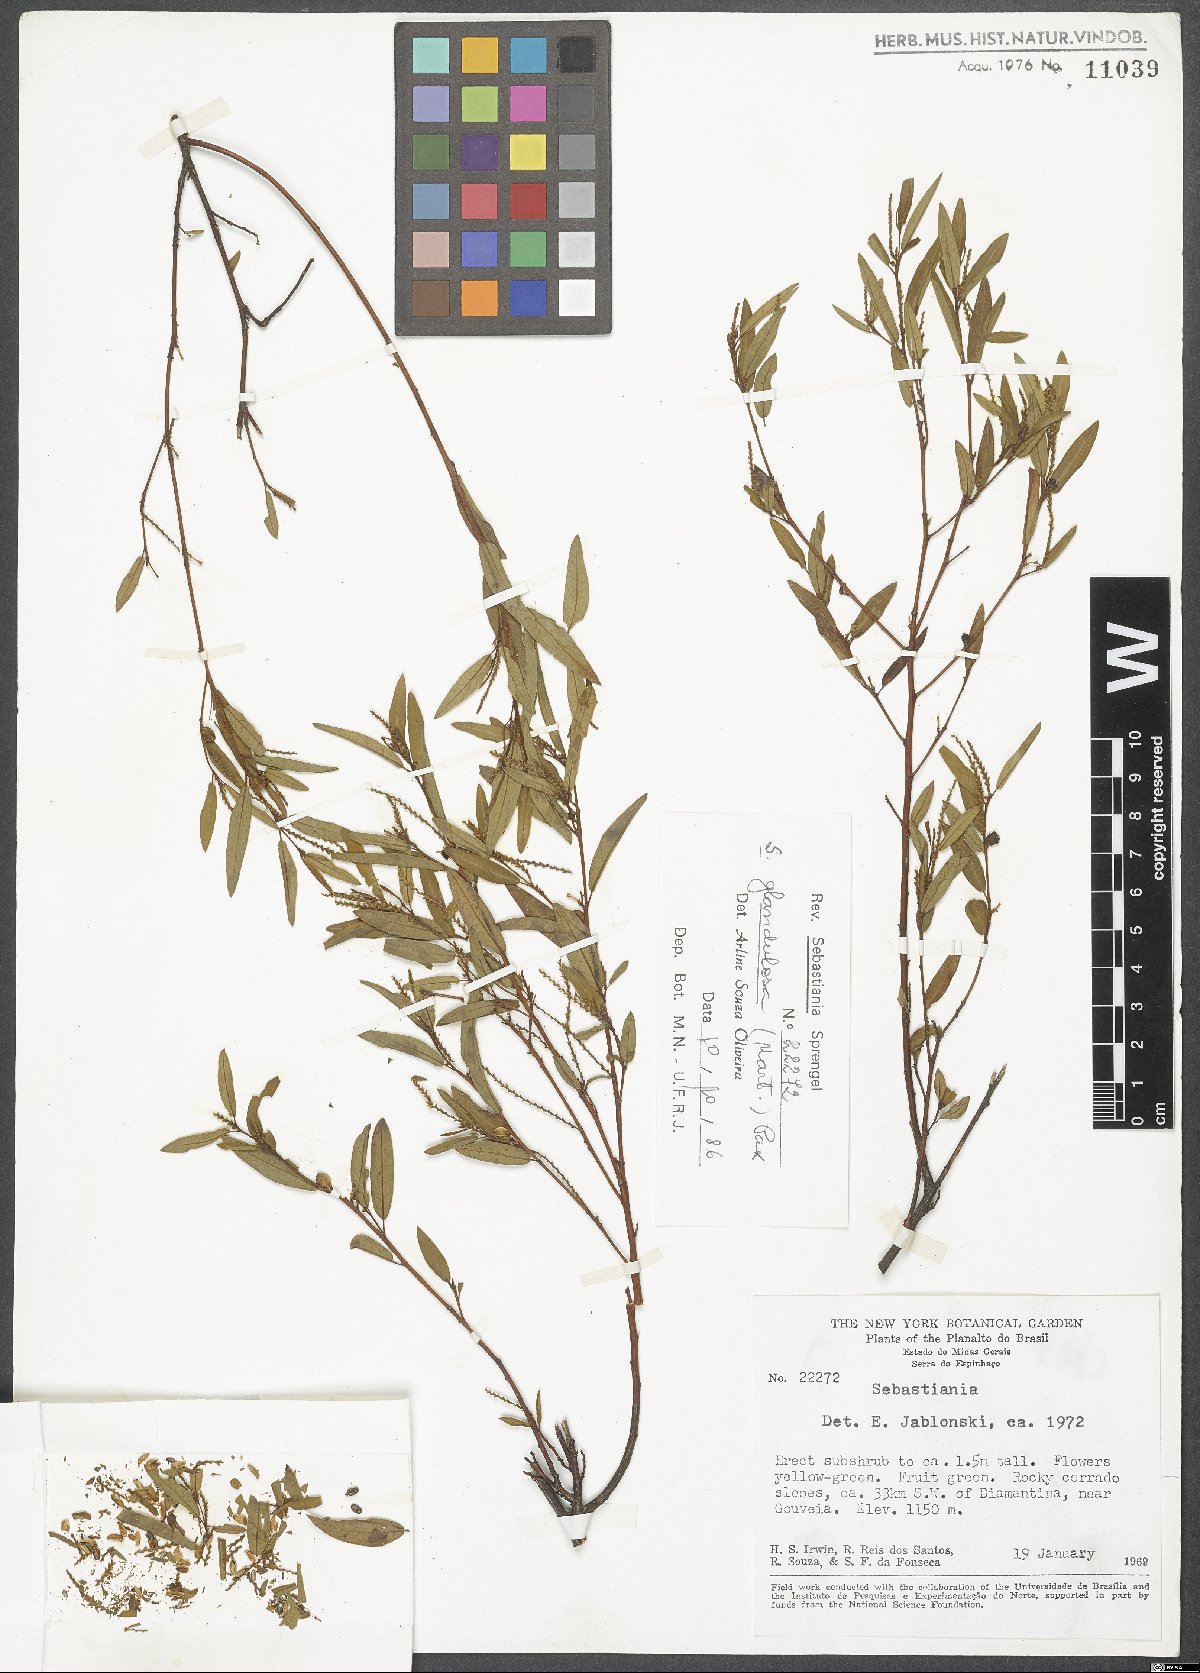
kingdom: Plantae
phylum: Tracheophyta
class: Magnoliopsida
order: Malpighiales
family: Euphorbiaceae
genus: Sebastiania
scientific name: Sebastiania glandulosa
